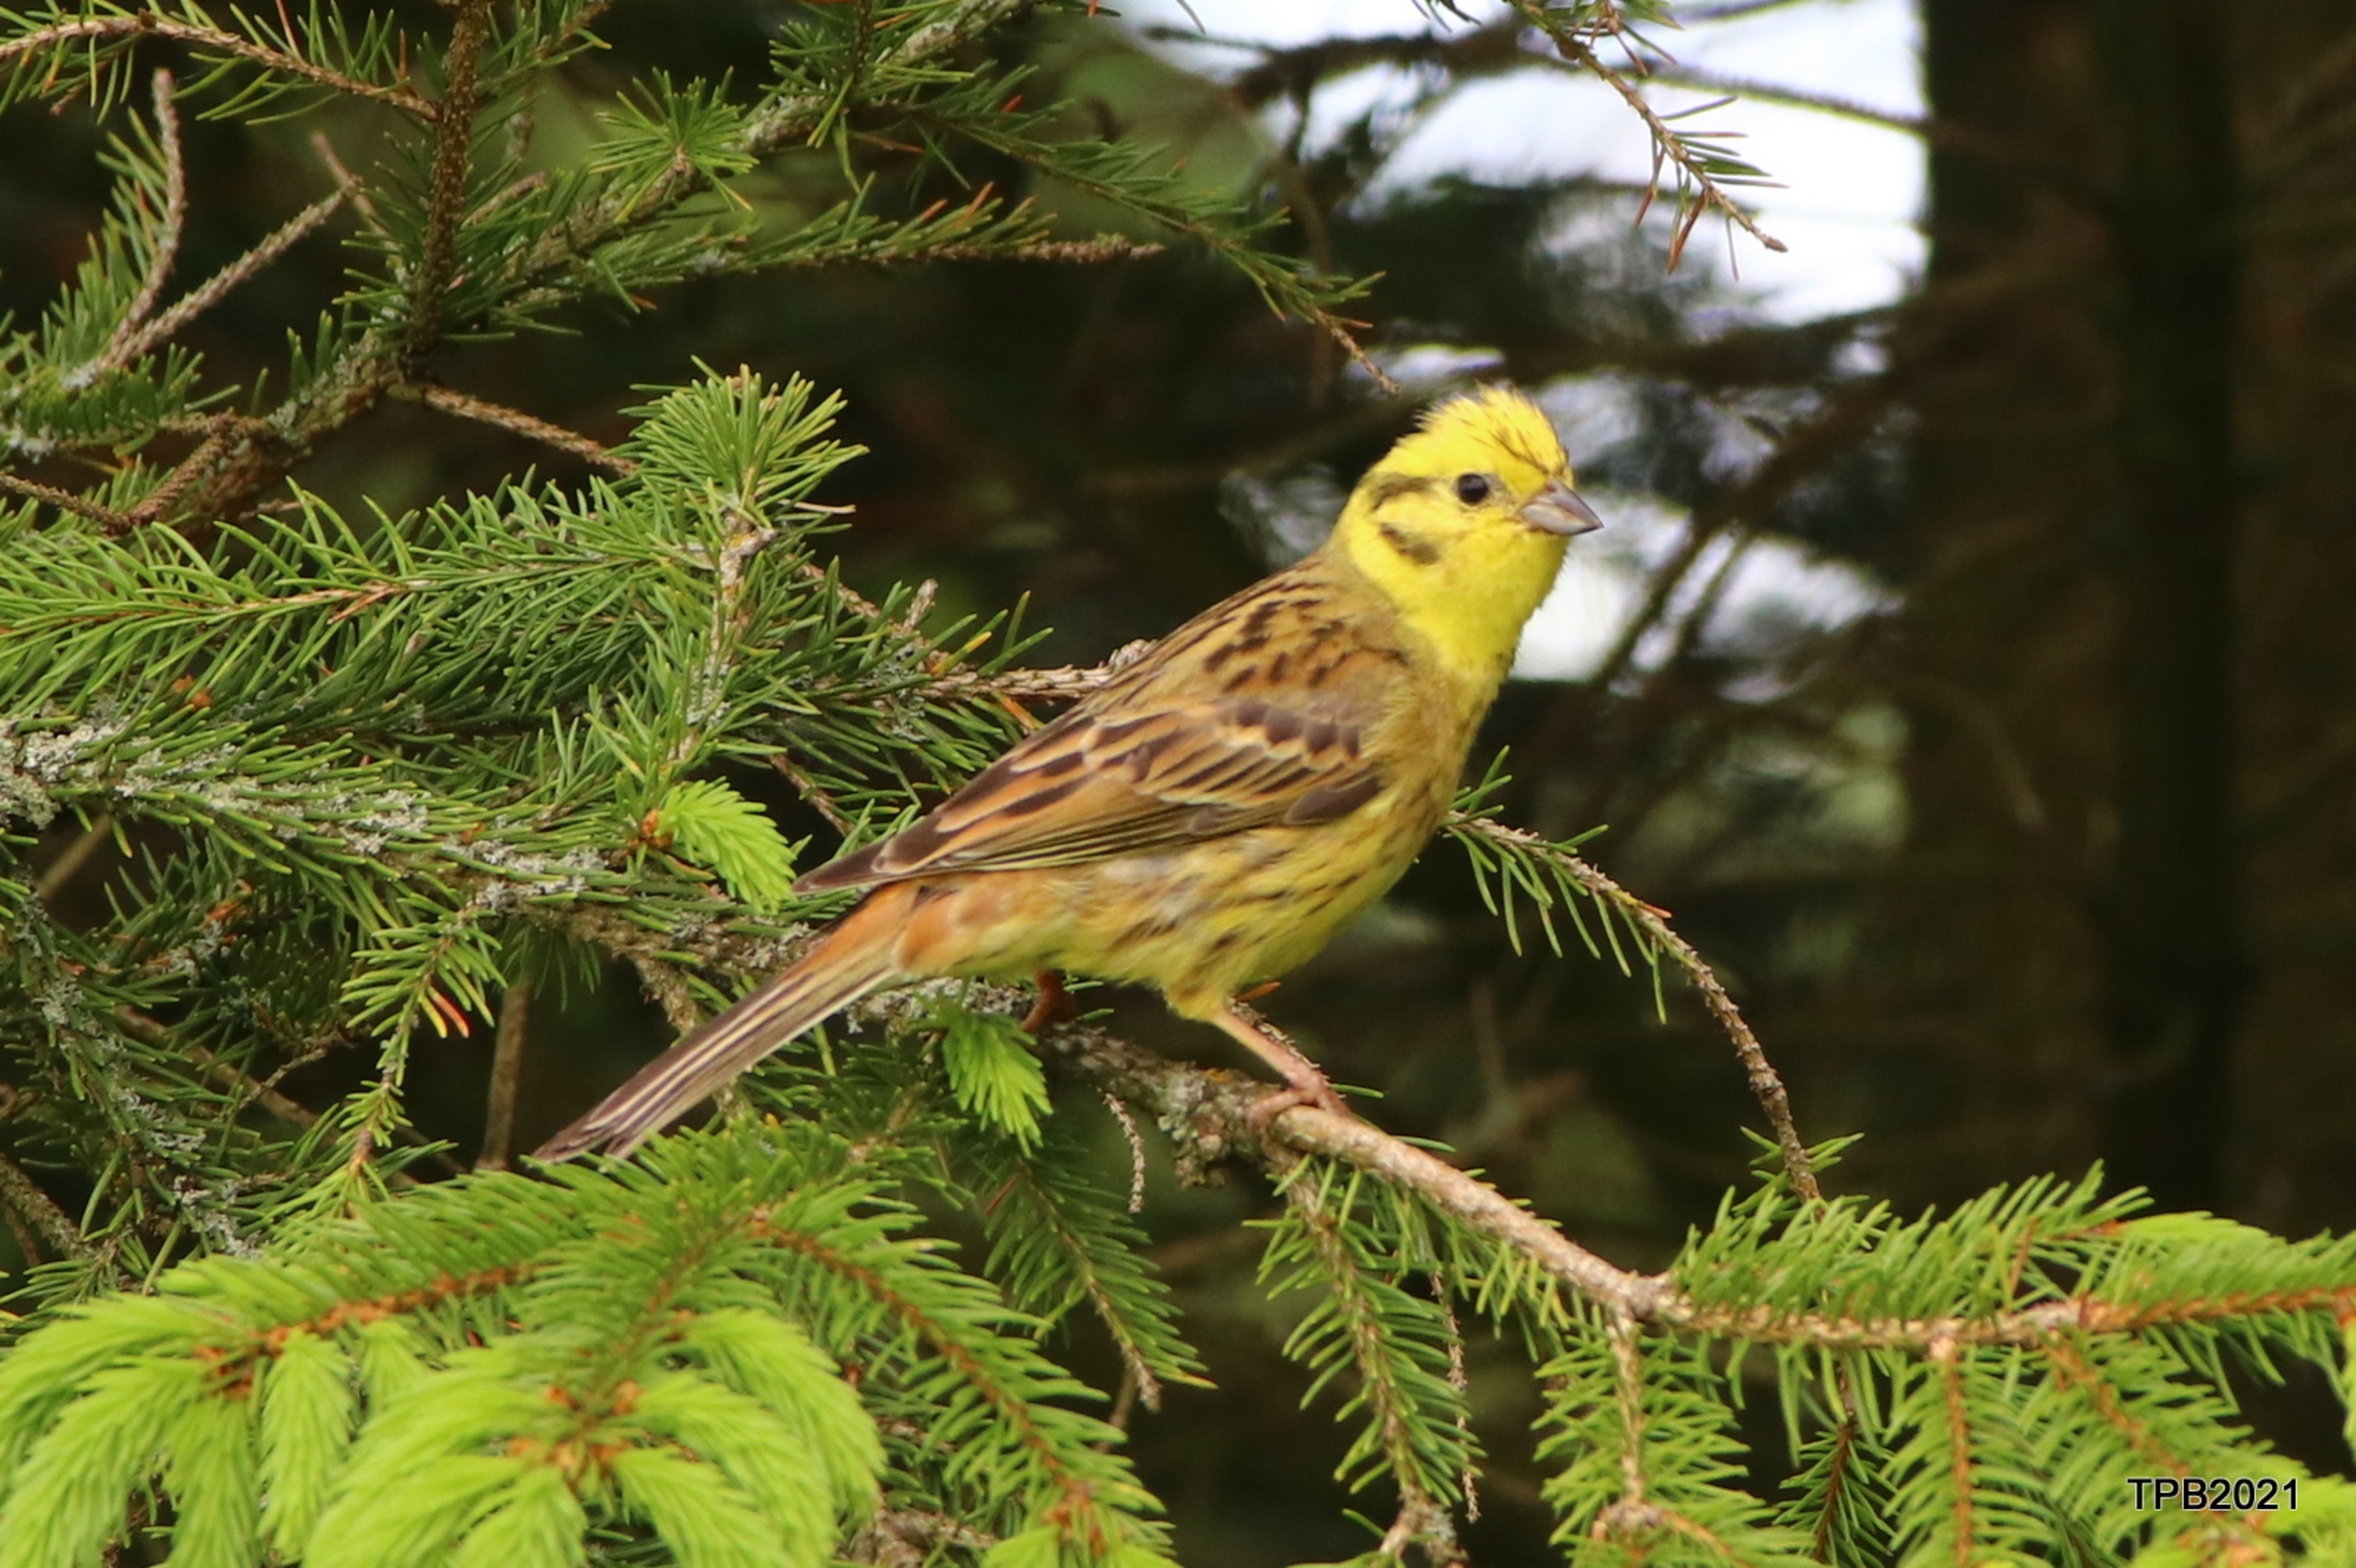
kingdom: Animalia
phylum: Chordata
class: Aves
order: Passeriformes
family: Emberizidae
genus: Emberiza
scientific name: Emberiza citrinella
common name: Gulspurv
